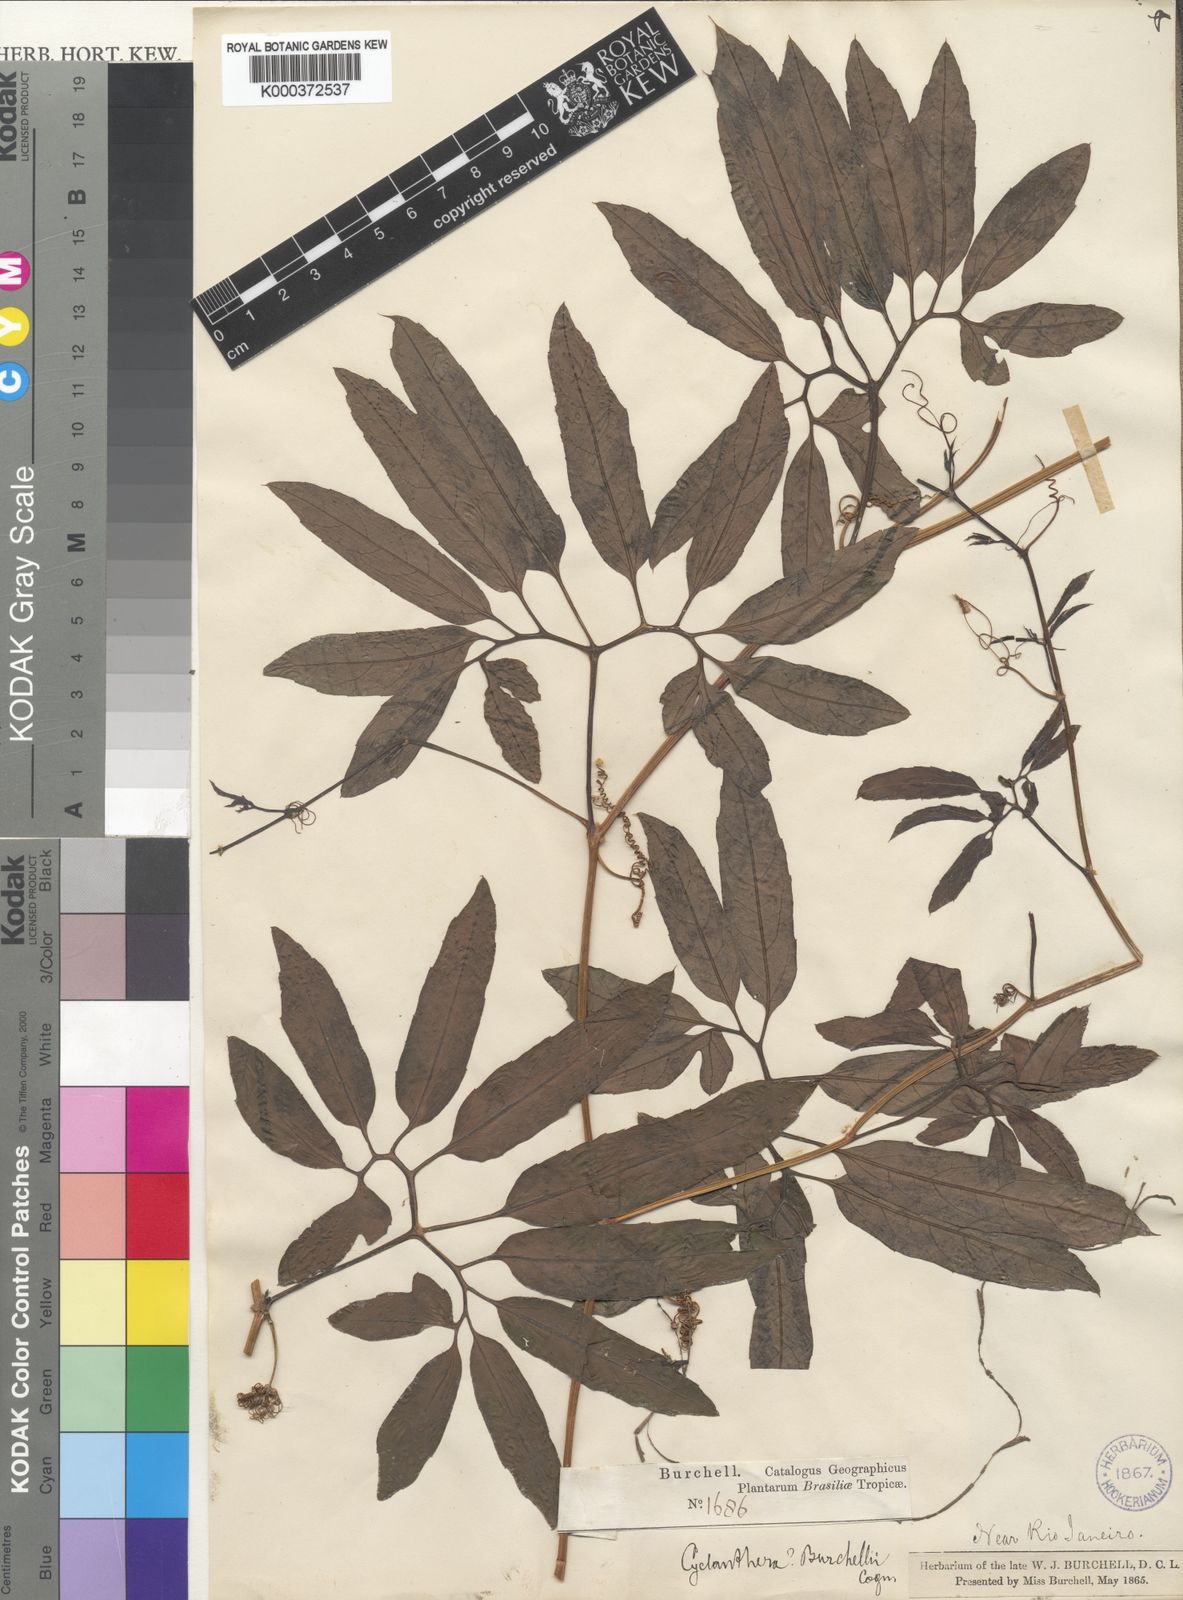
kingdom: Plantae
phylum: Tracheophyta
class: Magnoliopsida
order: Cucurbitales
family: Cucurbitaceae
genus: Cyclanthera
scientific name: Cyclanthera multifoliolata
